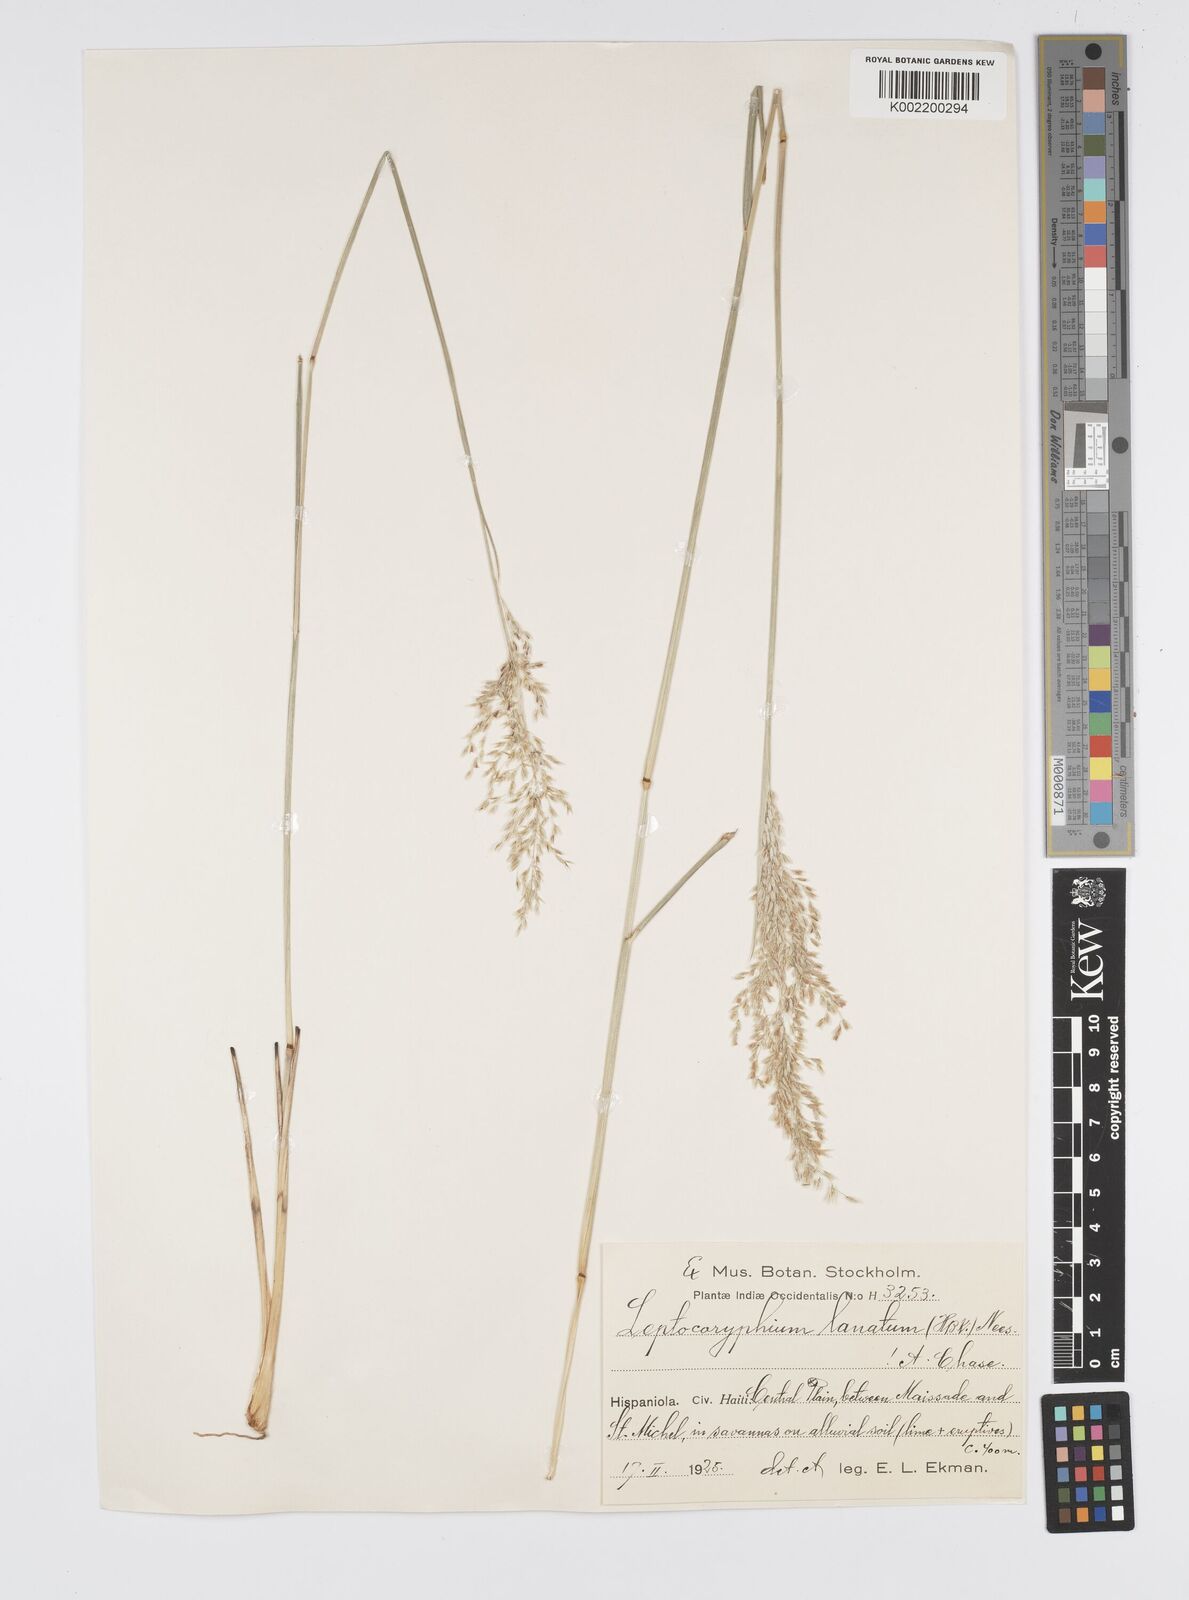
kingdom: Plantae
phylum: Tracheophyta
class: Liliopsida
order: Poales
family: Poaceae
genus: Anthenantia
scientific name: Anthenantia lanata
